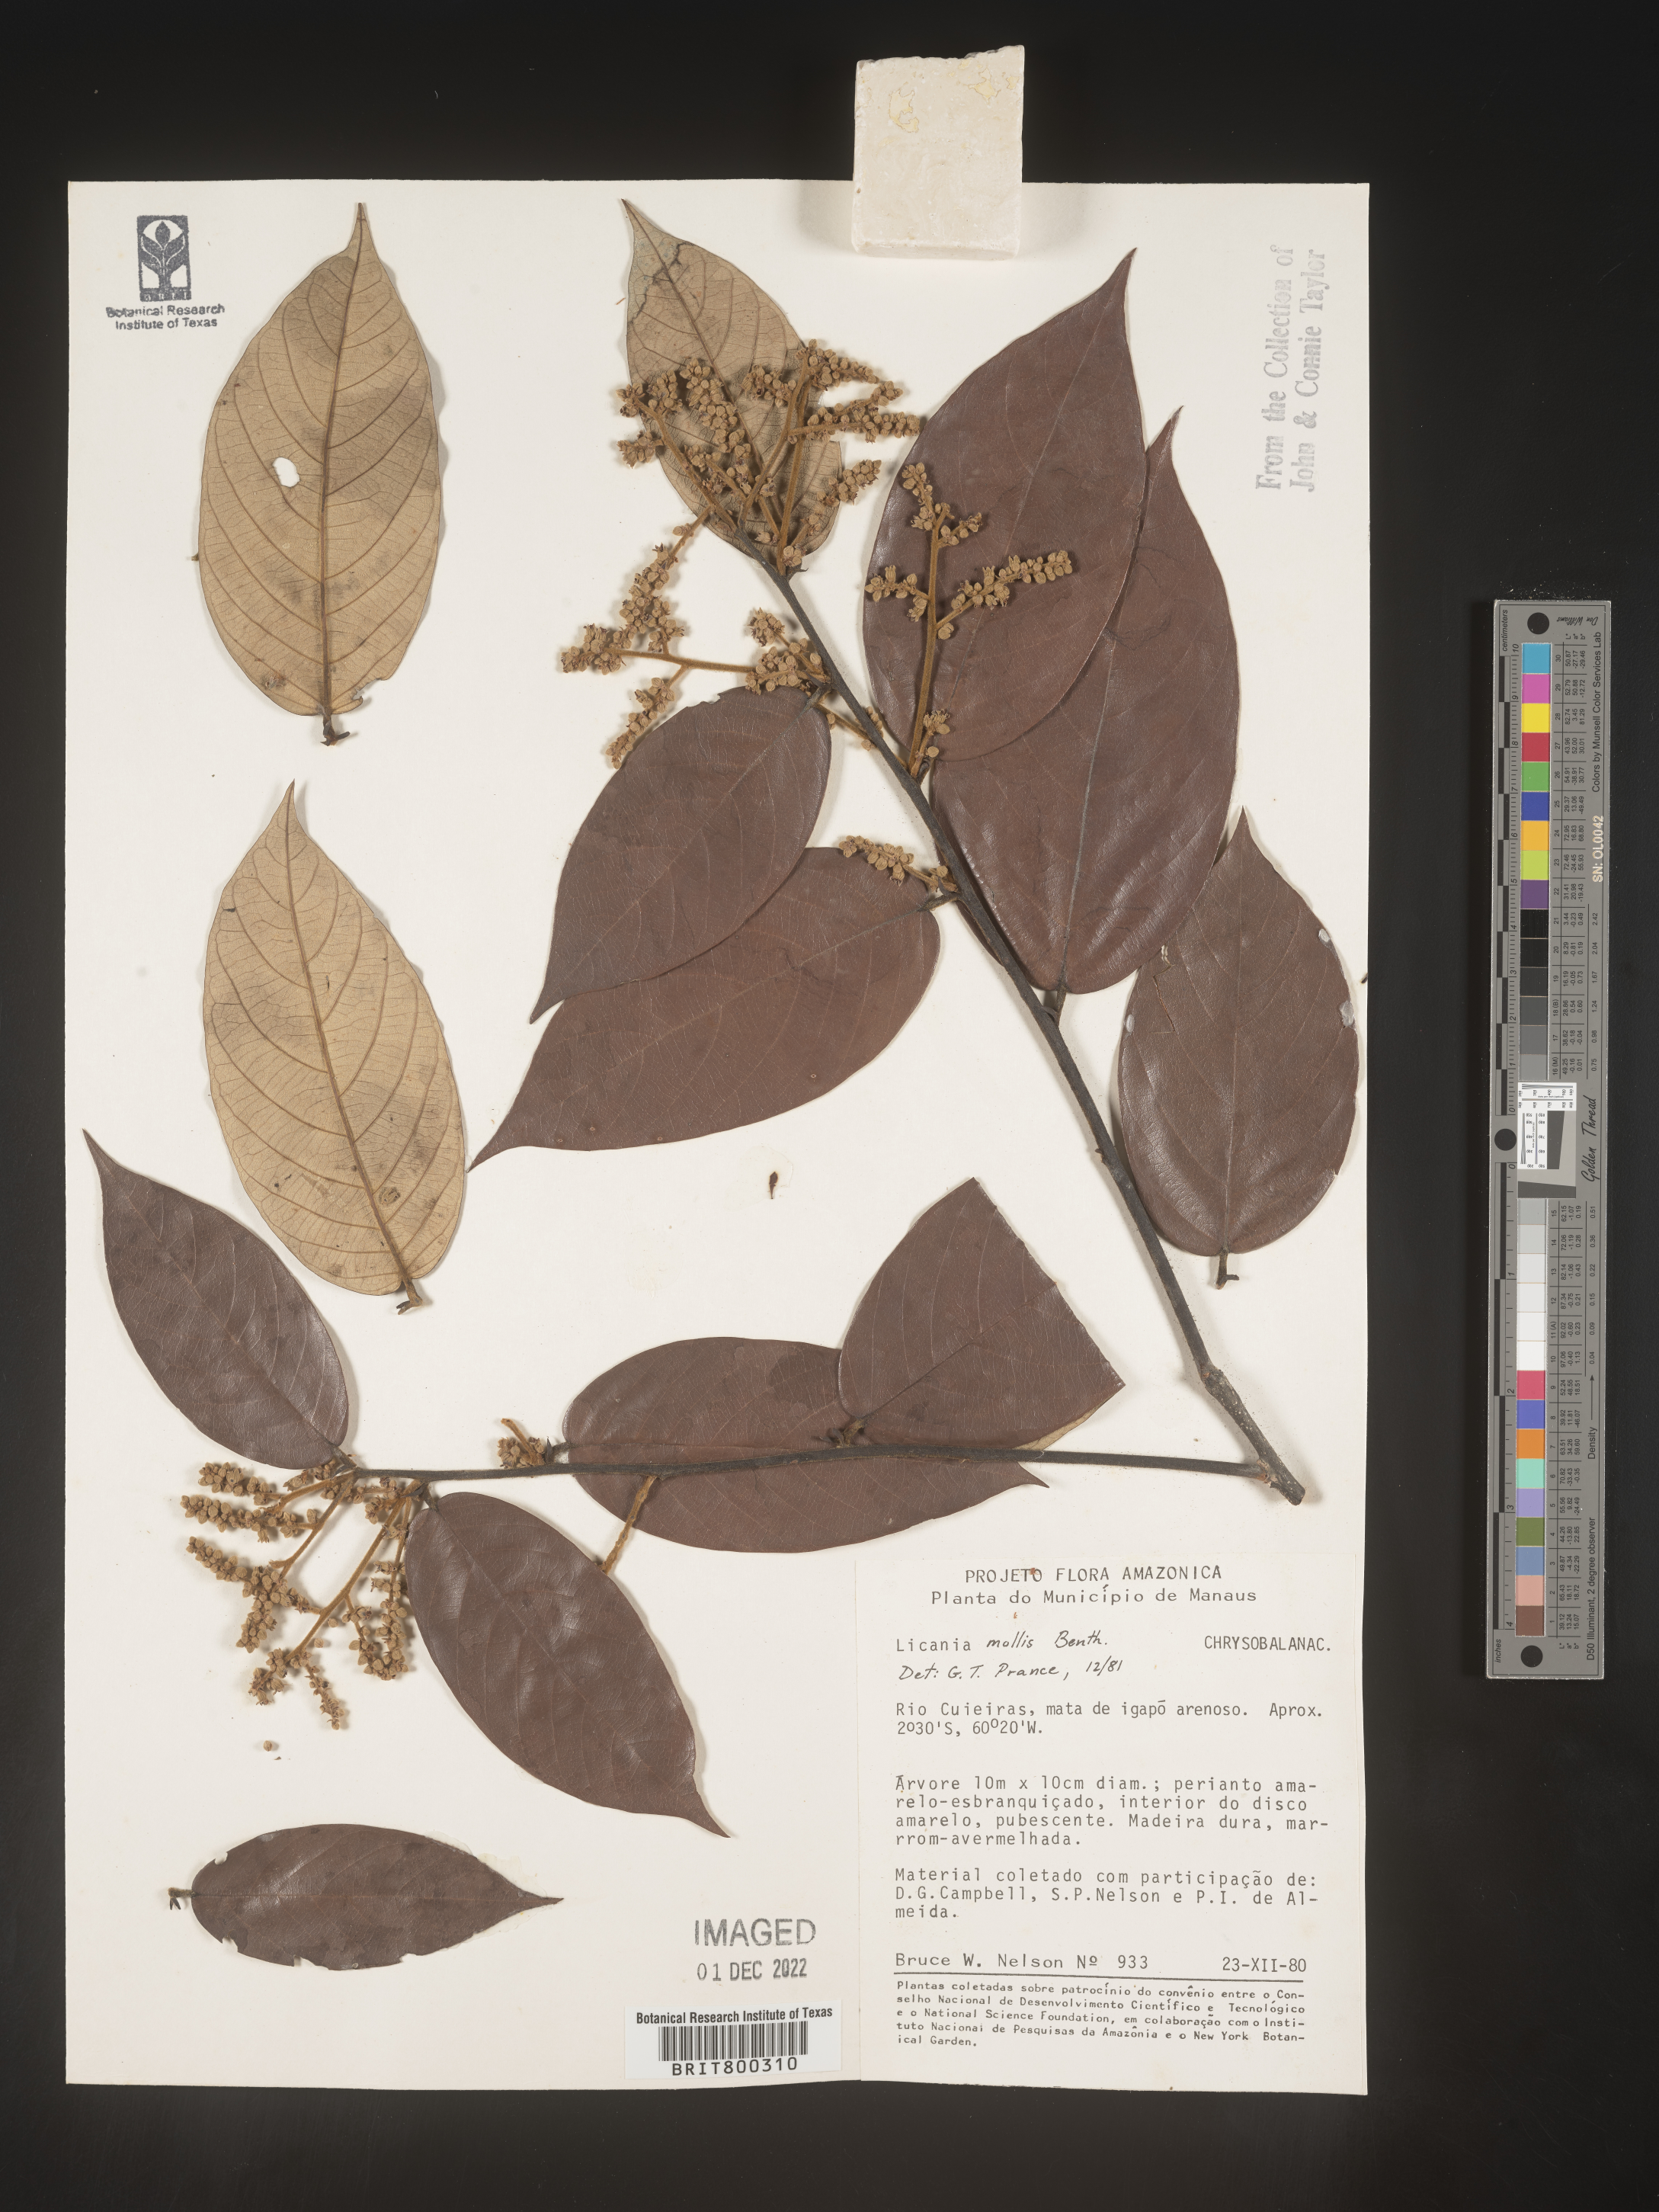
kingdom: Plantae
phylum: Tracheophyta
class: Magnoliopsida
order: Malpighiales
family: Chrysobalanaceae
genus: Licania
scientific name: Licania
